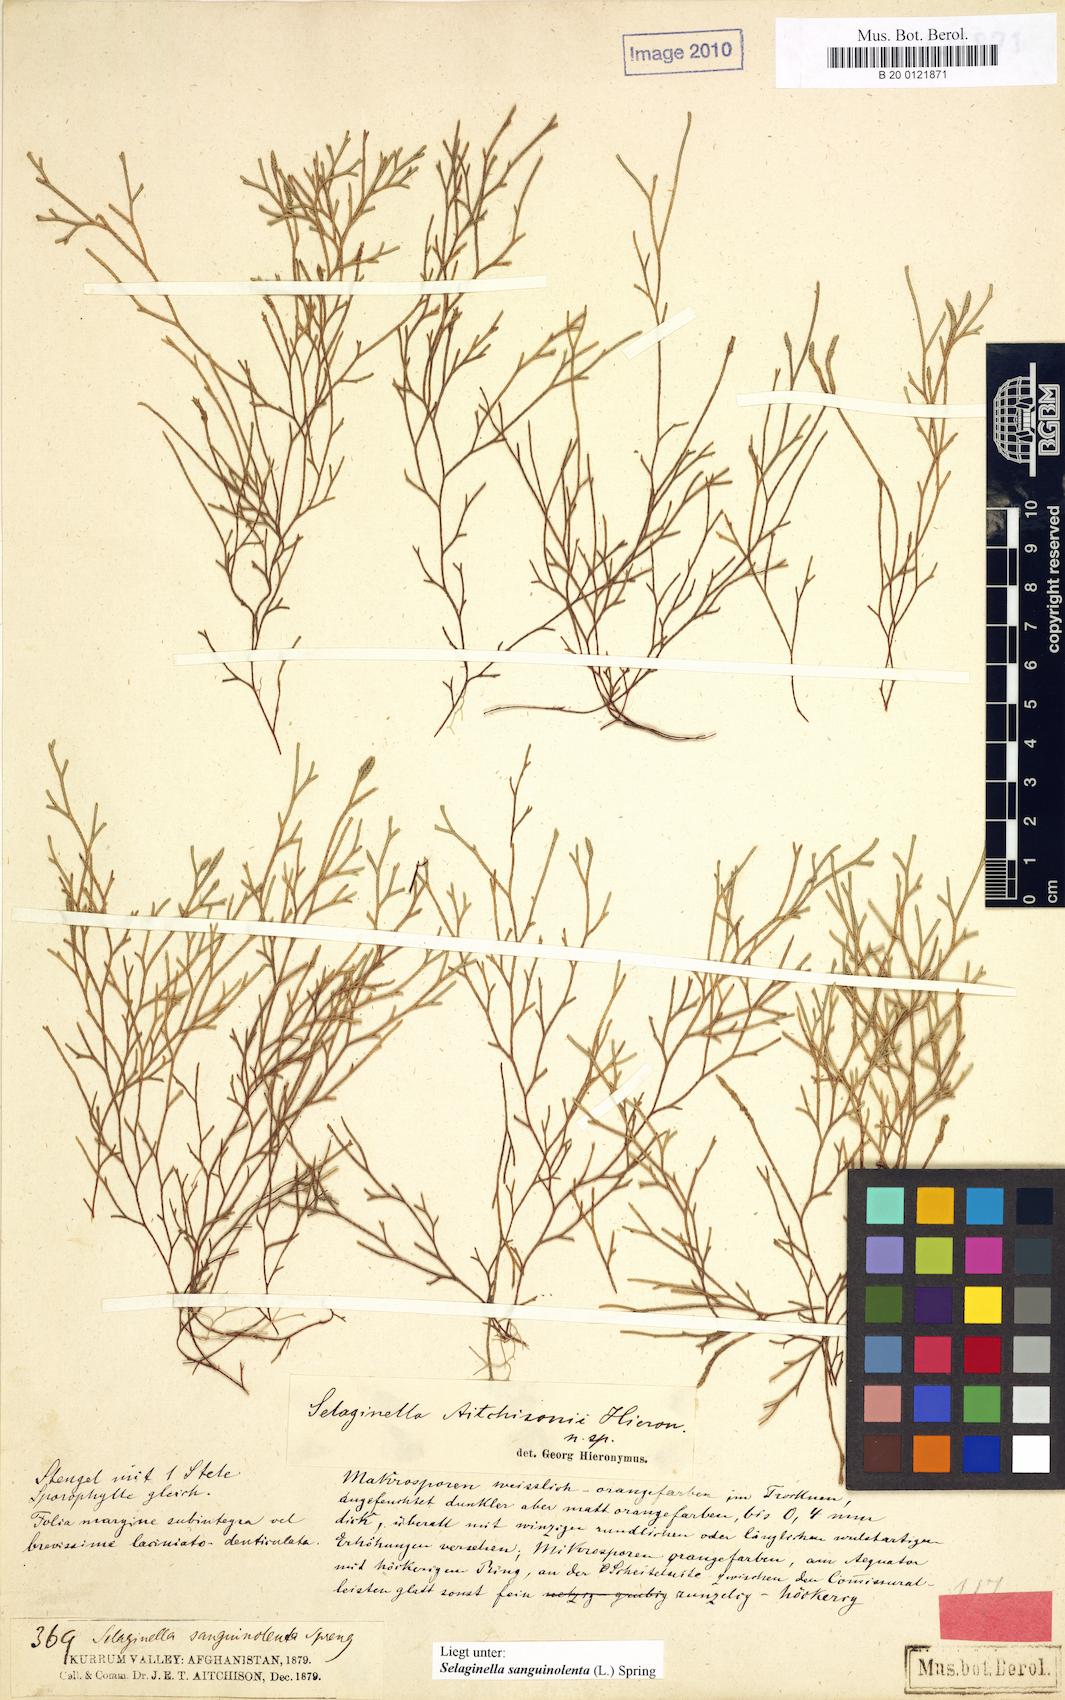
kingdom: Plantae
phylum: Tracheophyta
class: Lycopodiopsida
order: Selaginellales
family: Selaginellaceae
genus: Selaginella
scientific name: Selaginella aitchisonii
